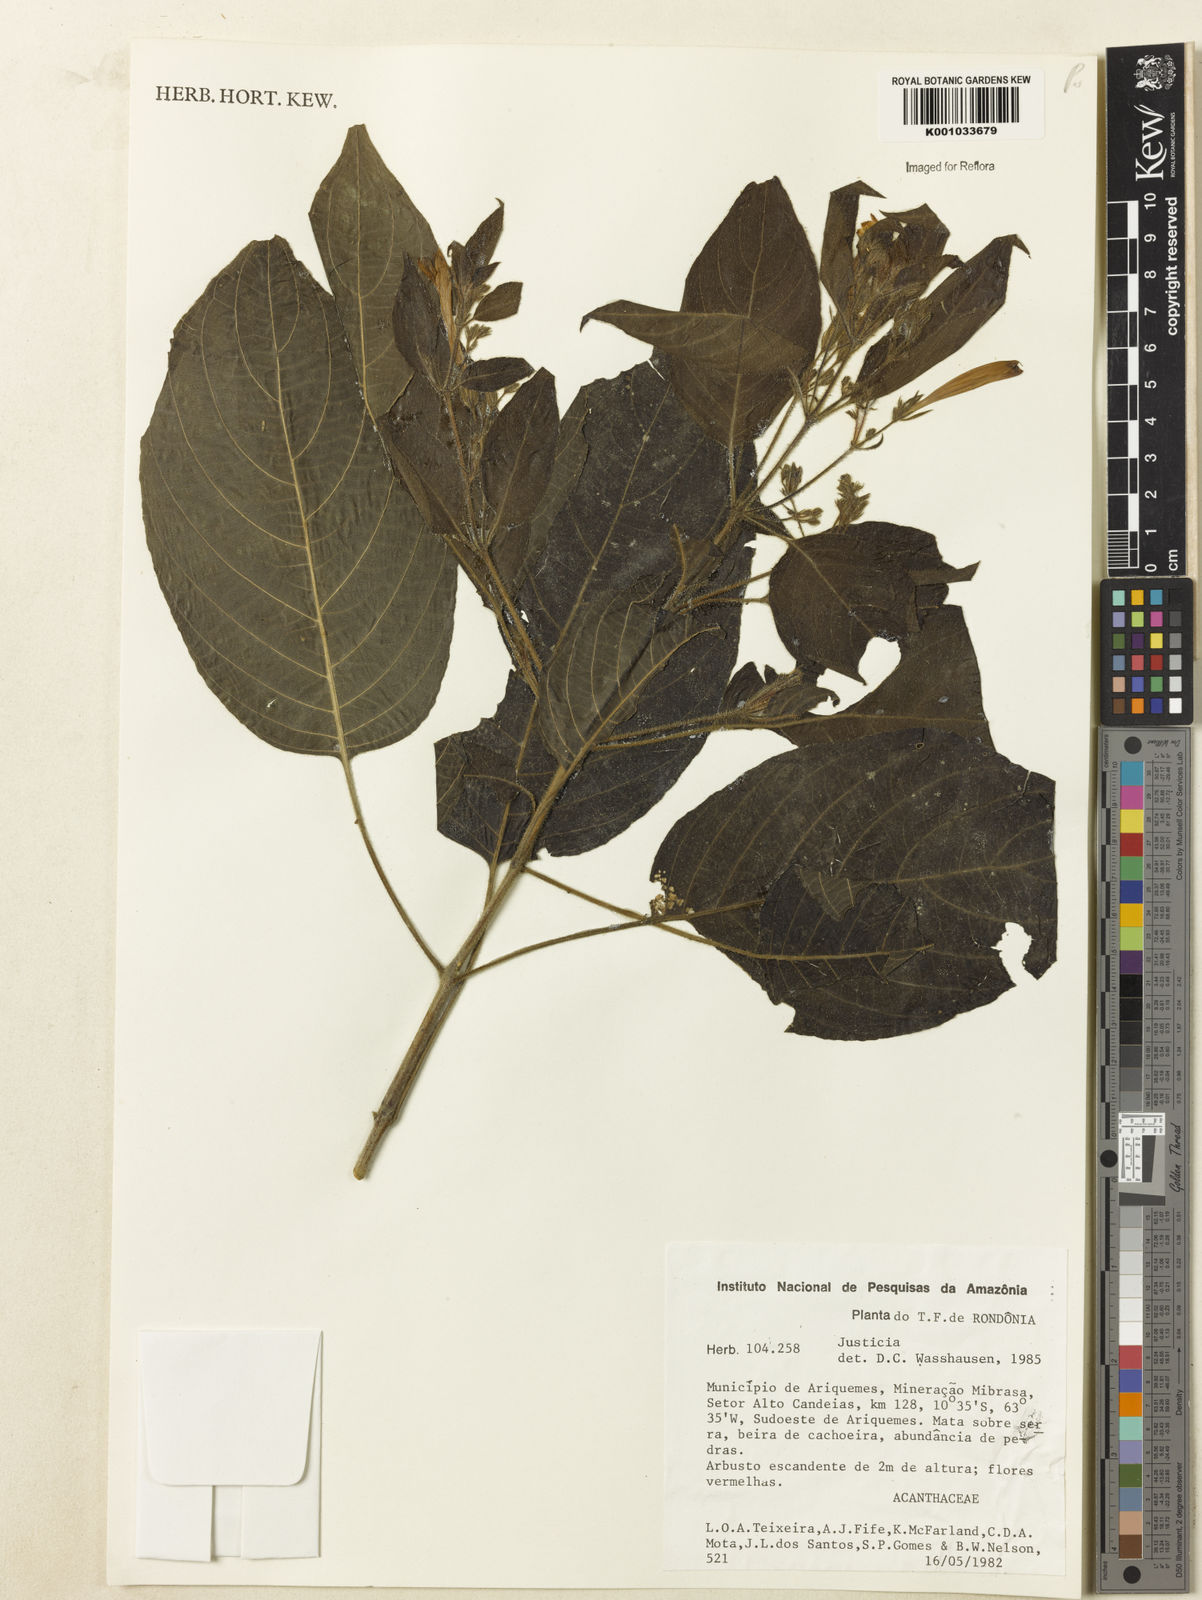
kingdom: Plantae
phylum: Tracheophyta
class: Magnoliopsida
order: Lamiales
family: Acanthaceae
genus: Justicia
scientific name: Justicia
